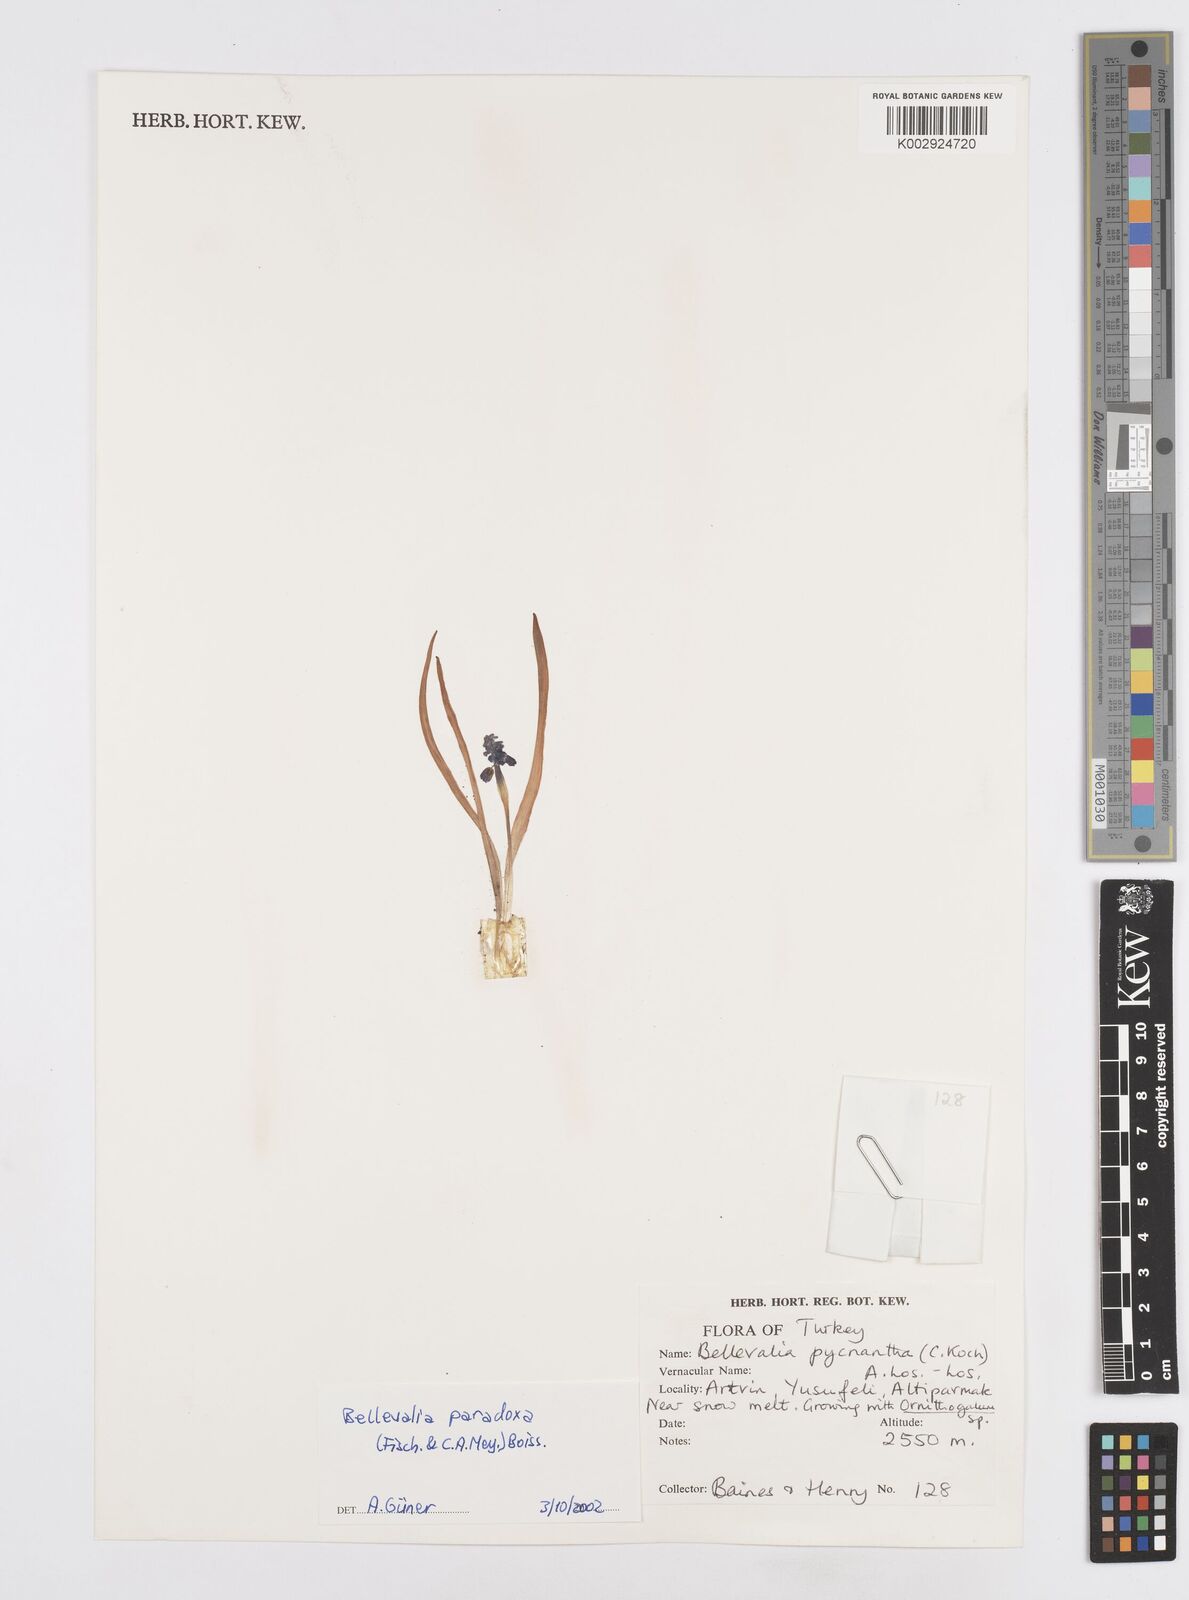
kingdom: Plantae
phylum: Tracheophyta
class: Liliopsida
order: Asparagales
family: Asparagaceae
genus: Bellevalia
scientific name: Bellevalia paradoxa
